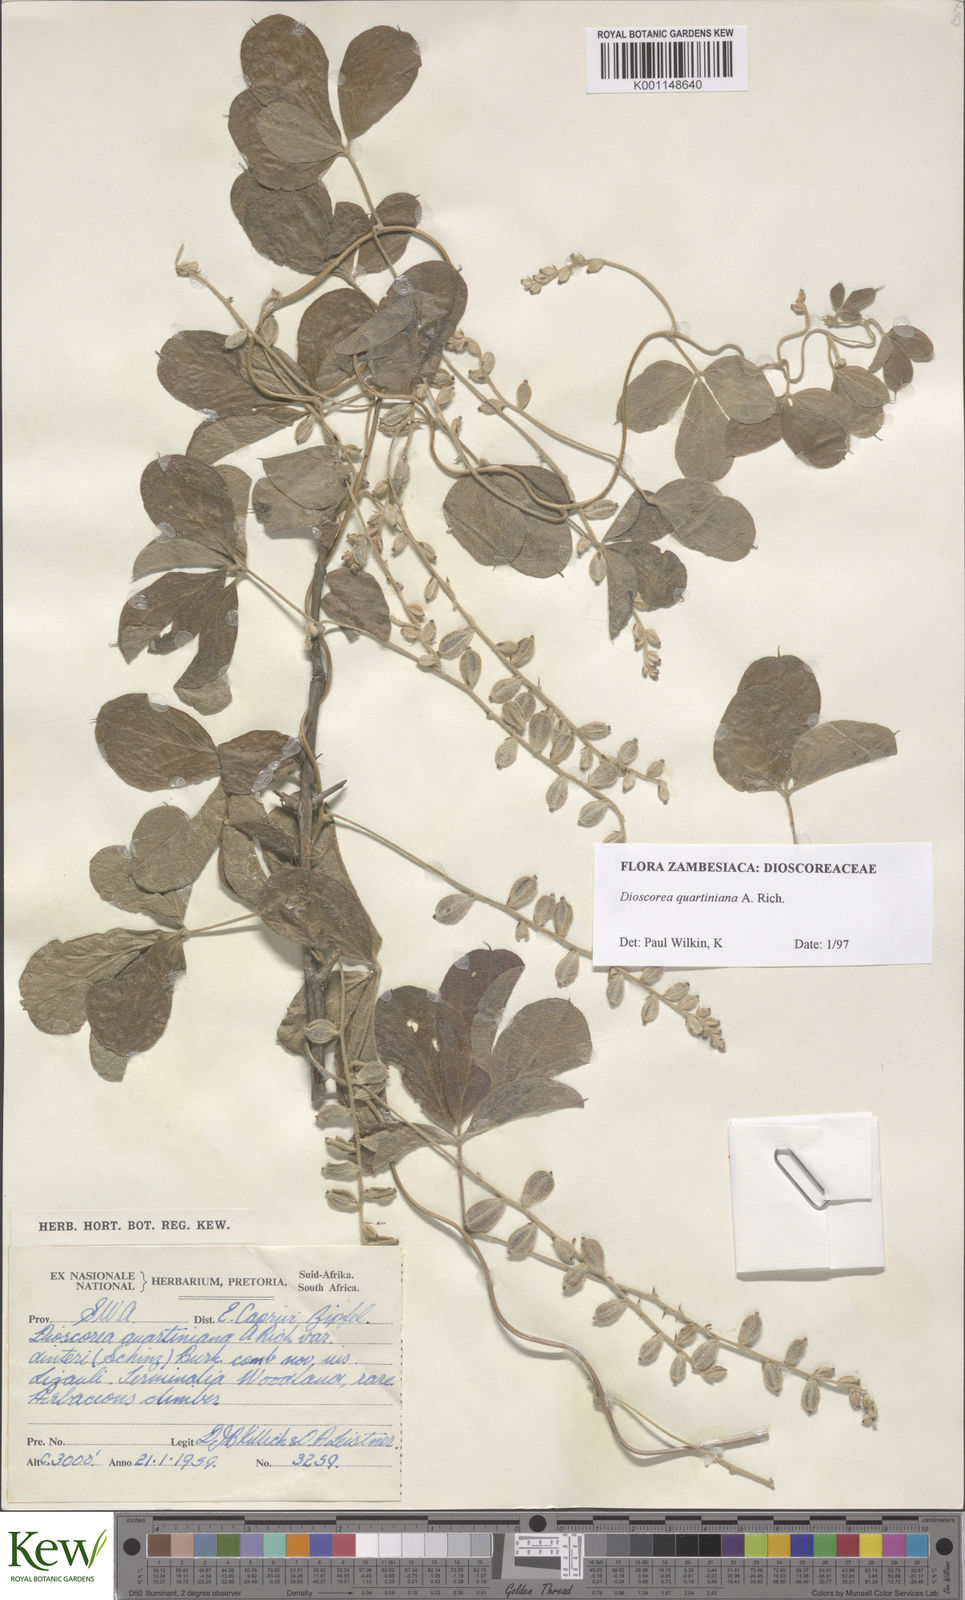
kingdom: Plantae
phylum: Tracheophyta
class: Liliopsida
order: Dioscoreales
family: Dioscoreaceae
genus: Dioscorea
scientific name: Dioscorea quartiniana
